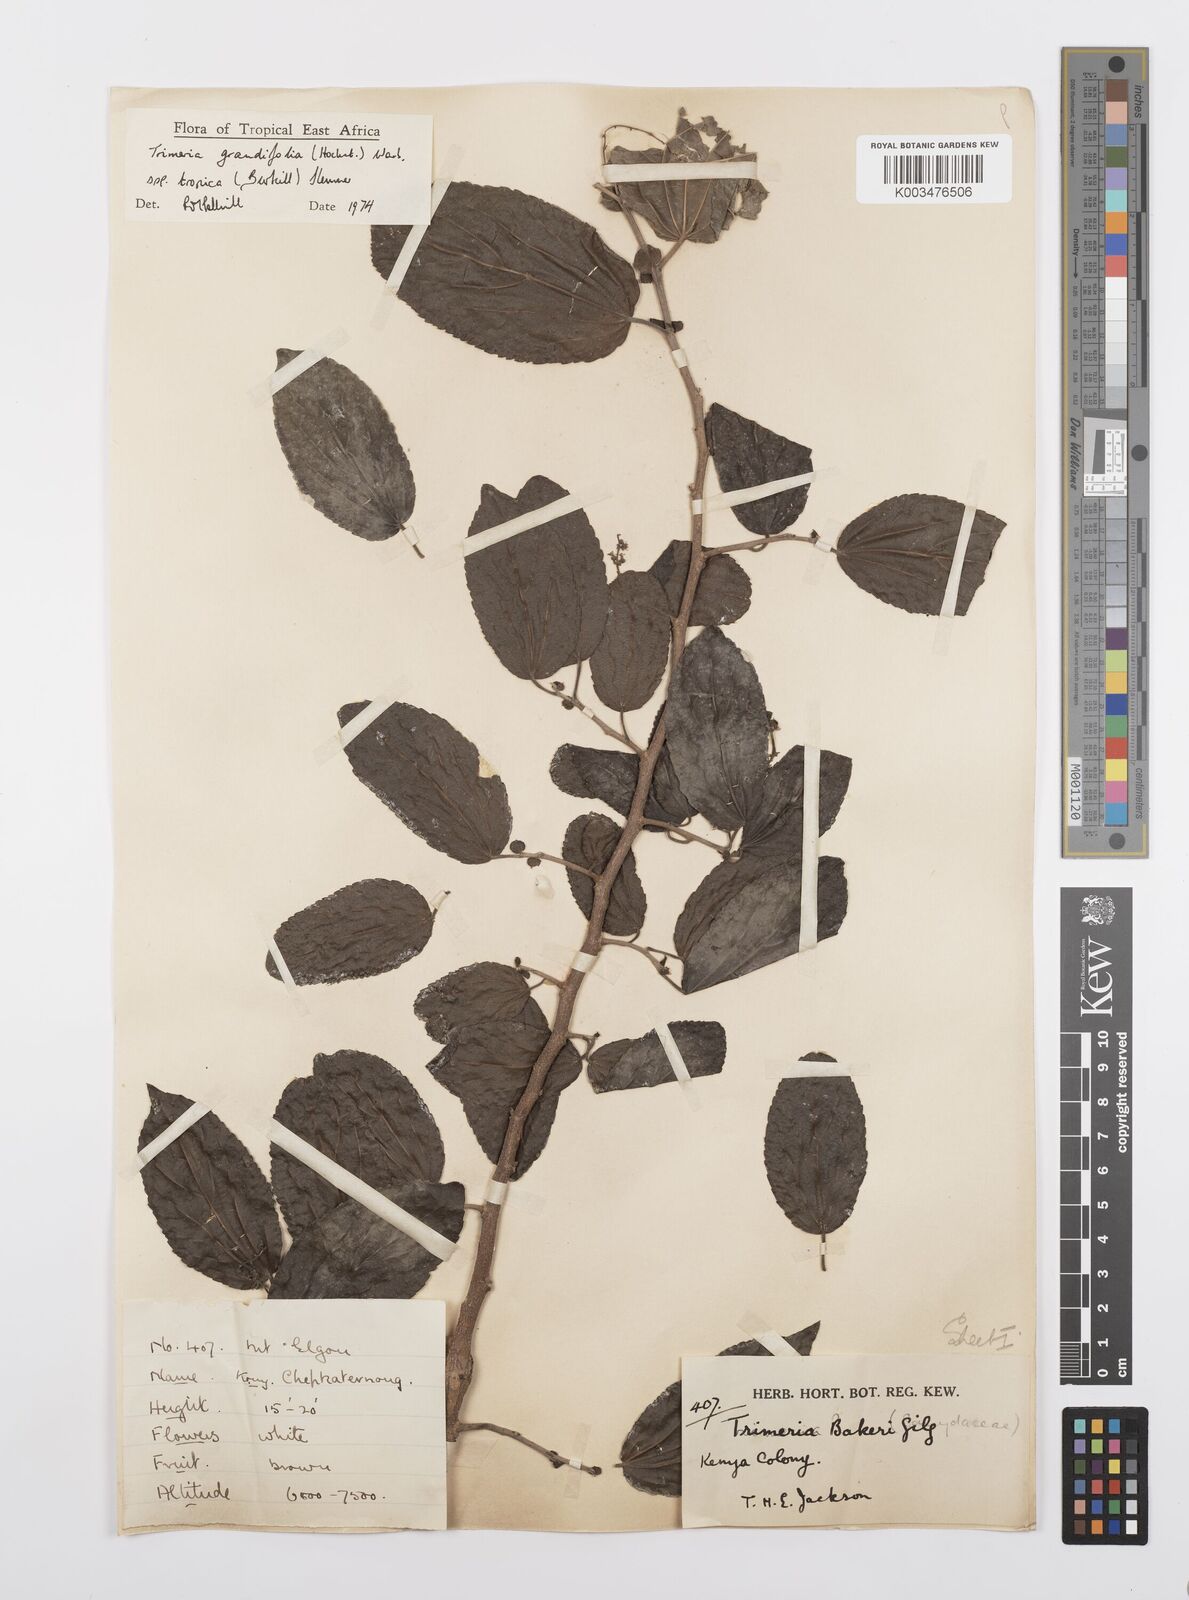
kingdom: Plantae
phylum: Tracheophyta
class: Magnoliopsida
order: Malpighiales
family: Salicaceae
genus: Trimeria
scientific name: Trimeria grandifolia
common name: Wild mulberry
